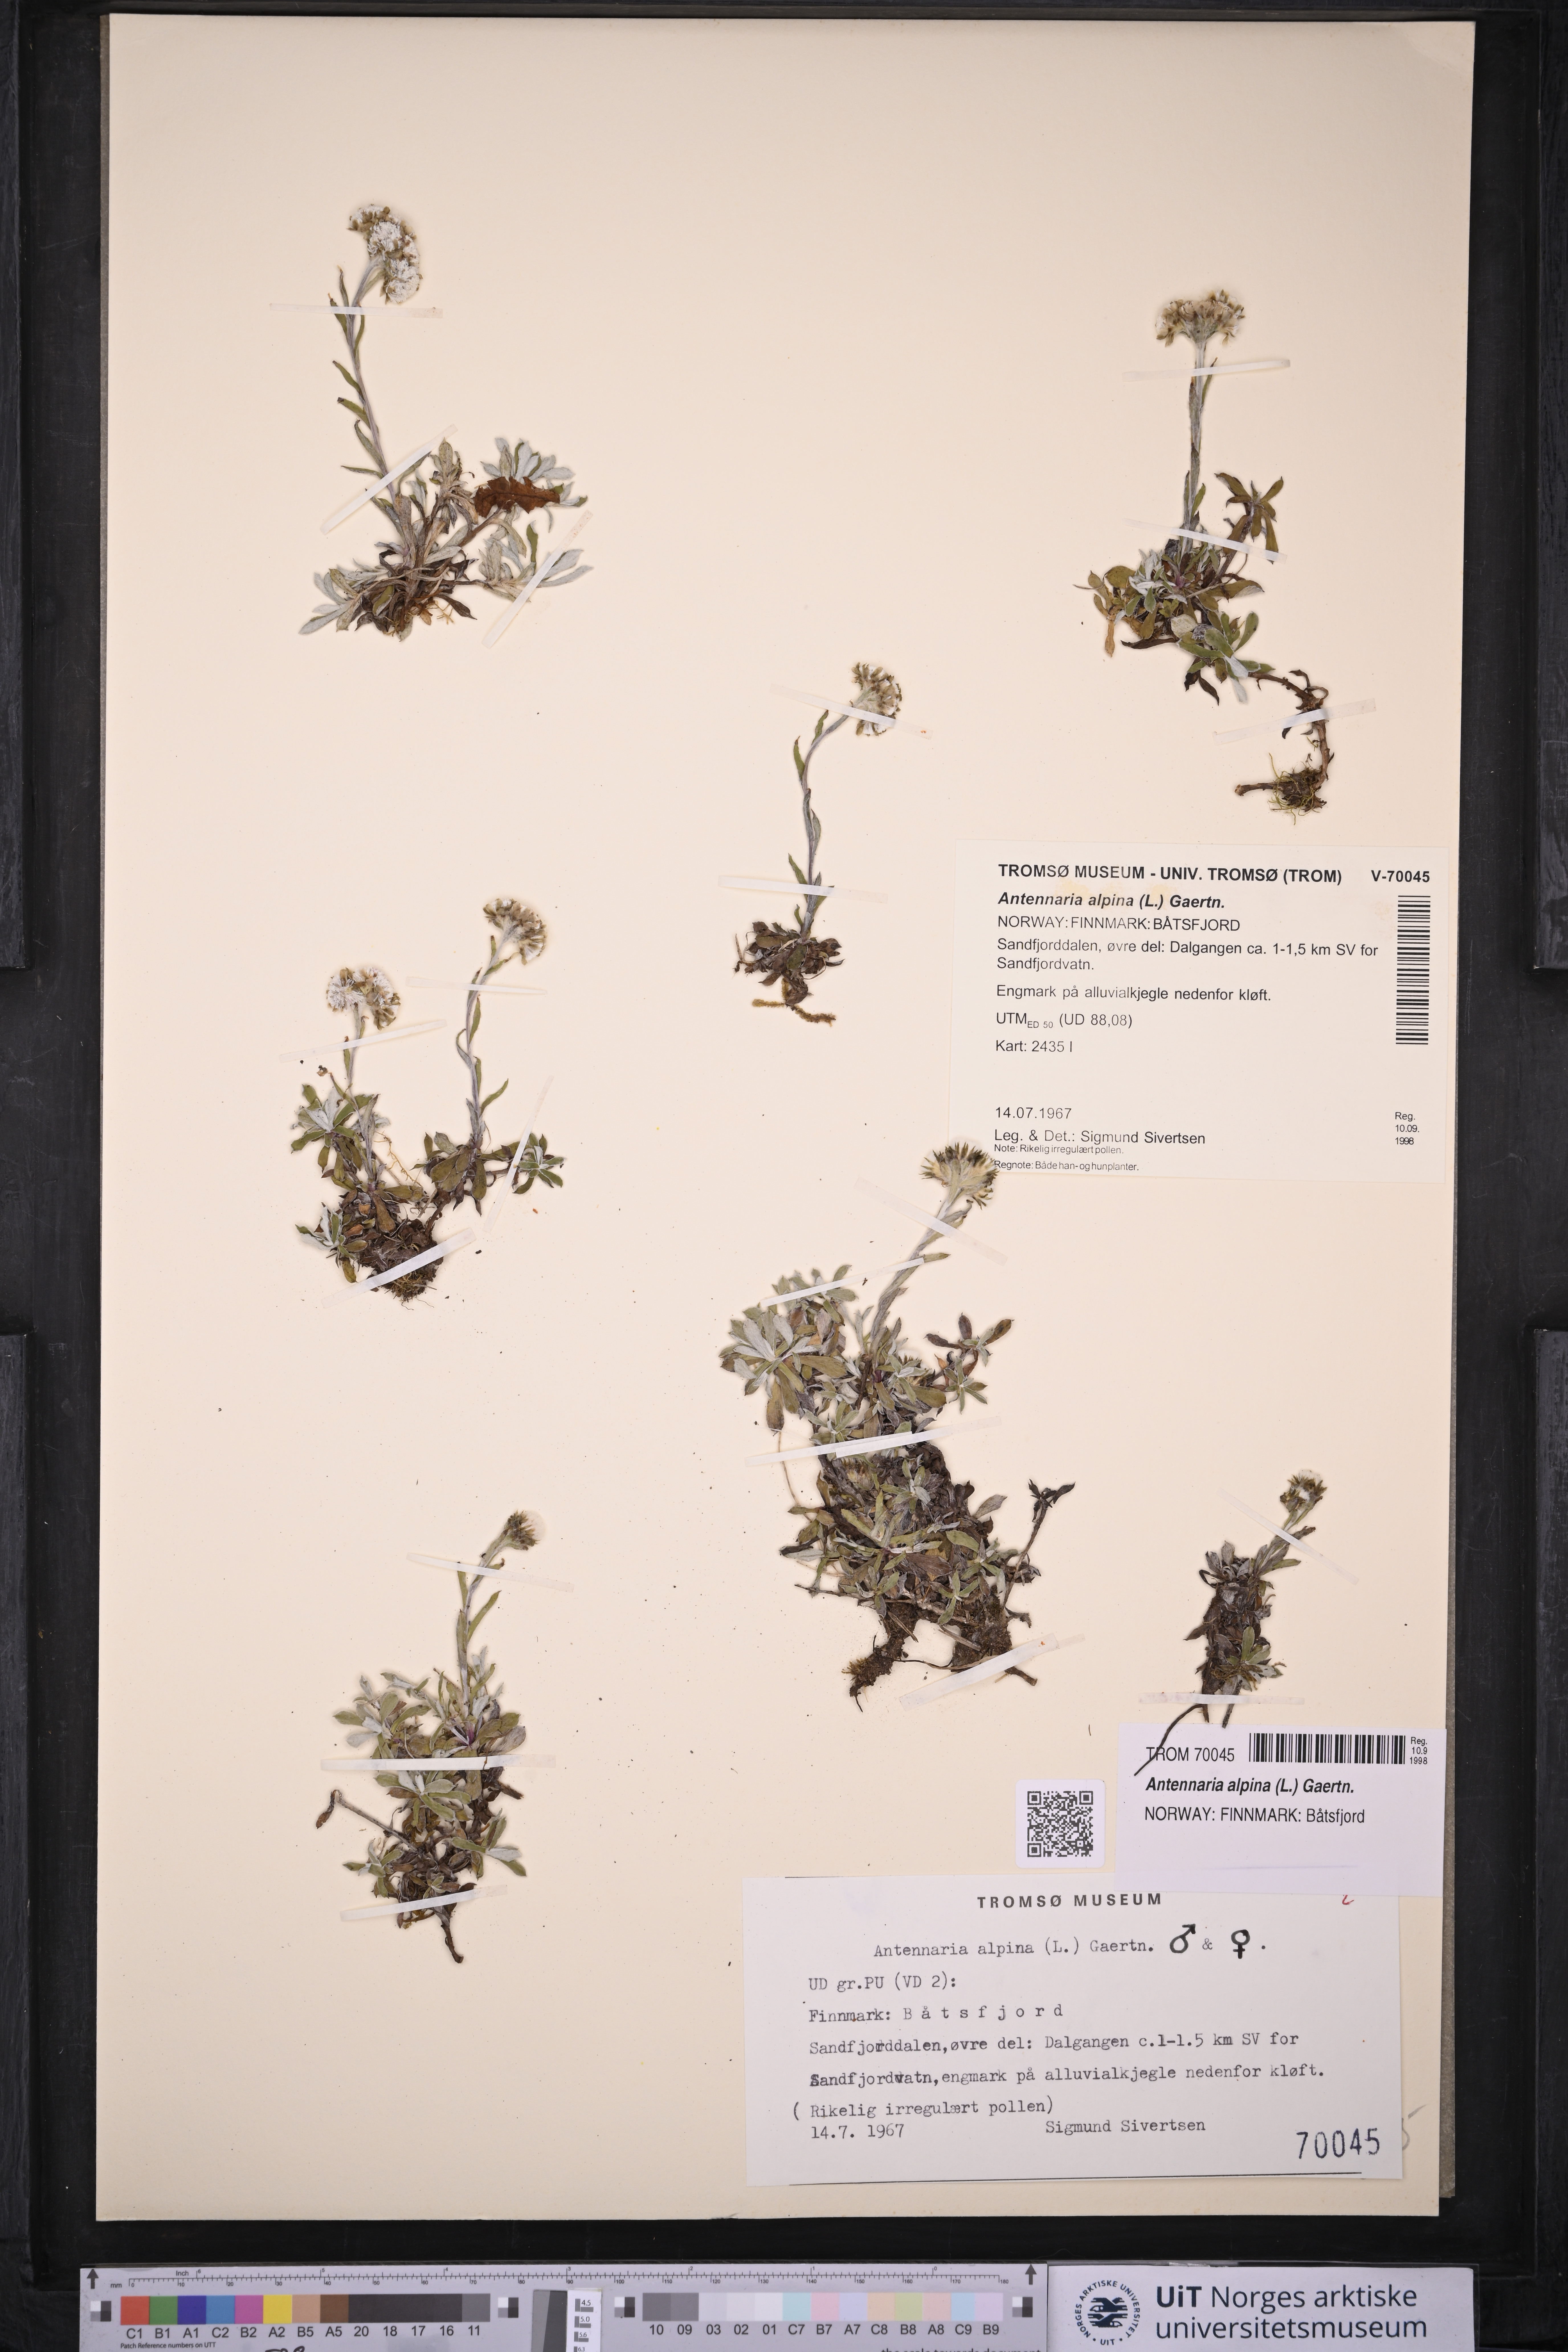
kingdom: Plantae
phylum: Tracheophyta
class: Magnoliopsida
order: Asterales
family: Asteraceae
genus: Antennaria
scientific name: Antennaria alpina
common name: Alpine pussytoes
